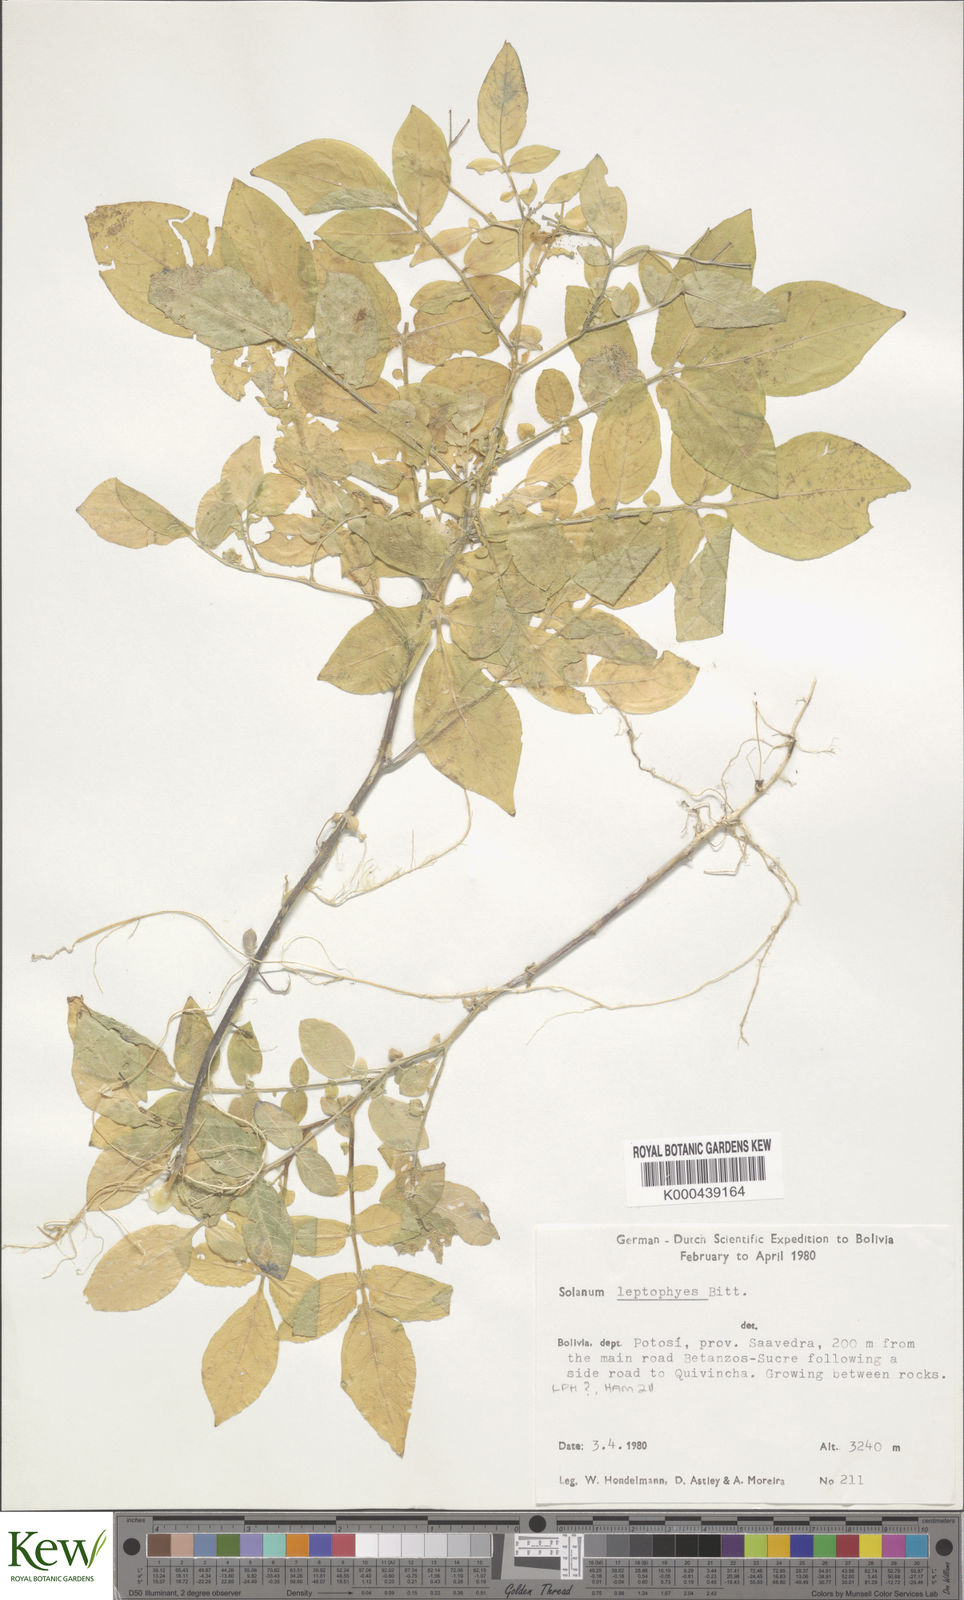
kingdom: Plantae
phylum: Tracheophyta
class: Magnoliopsida
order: Solanales
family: Solanaceae
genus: Solanum
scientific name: Solanum brevicaule
